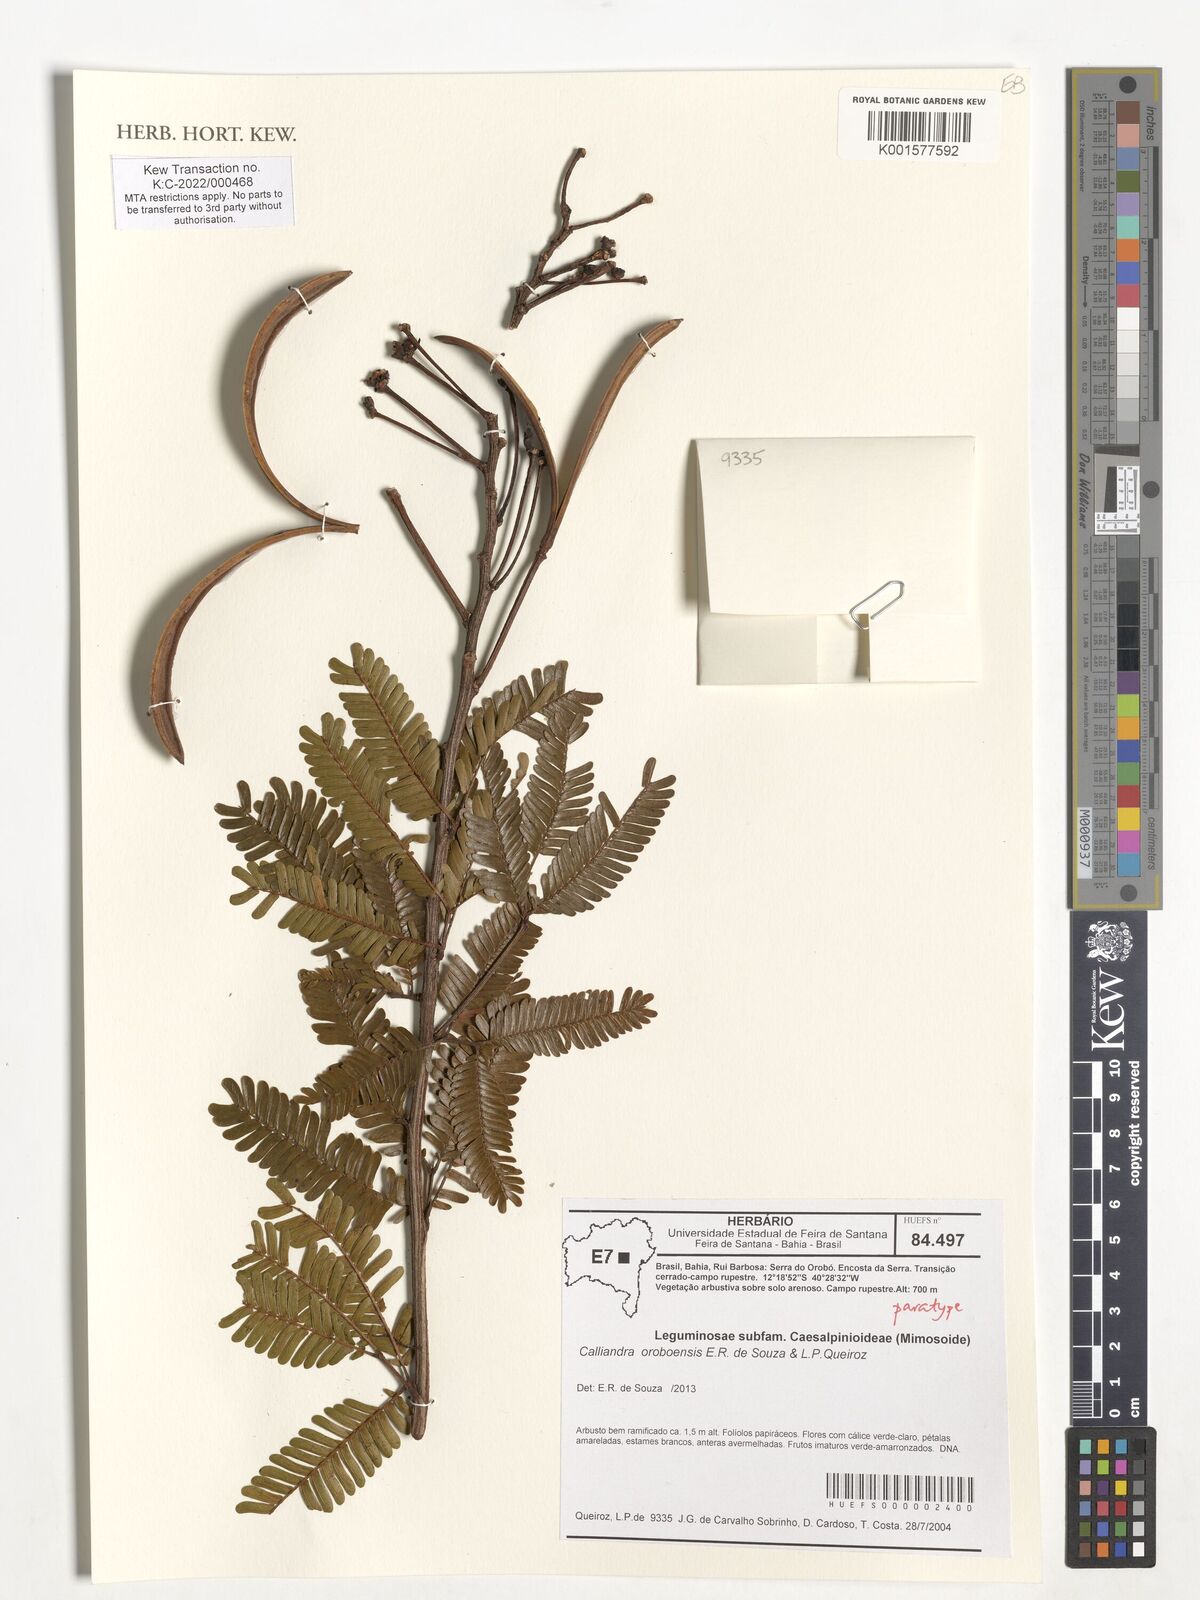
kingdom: Plantae
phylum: Tracheophyta
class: Magnoliopsida
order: Fabales
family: Fabaceae
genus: Calliandra
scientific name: Calliandra oroboensis
